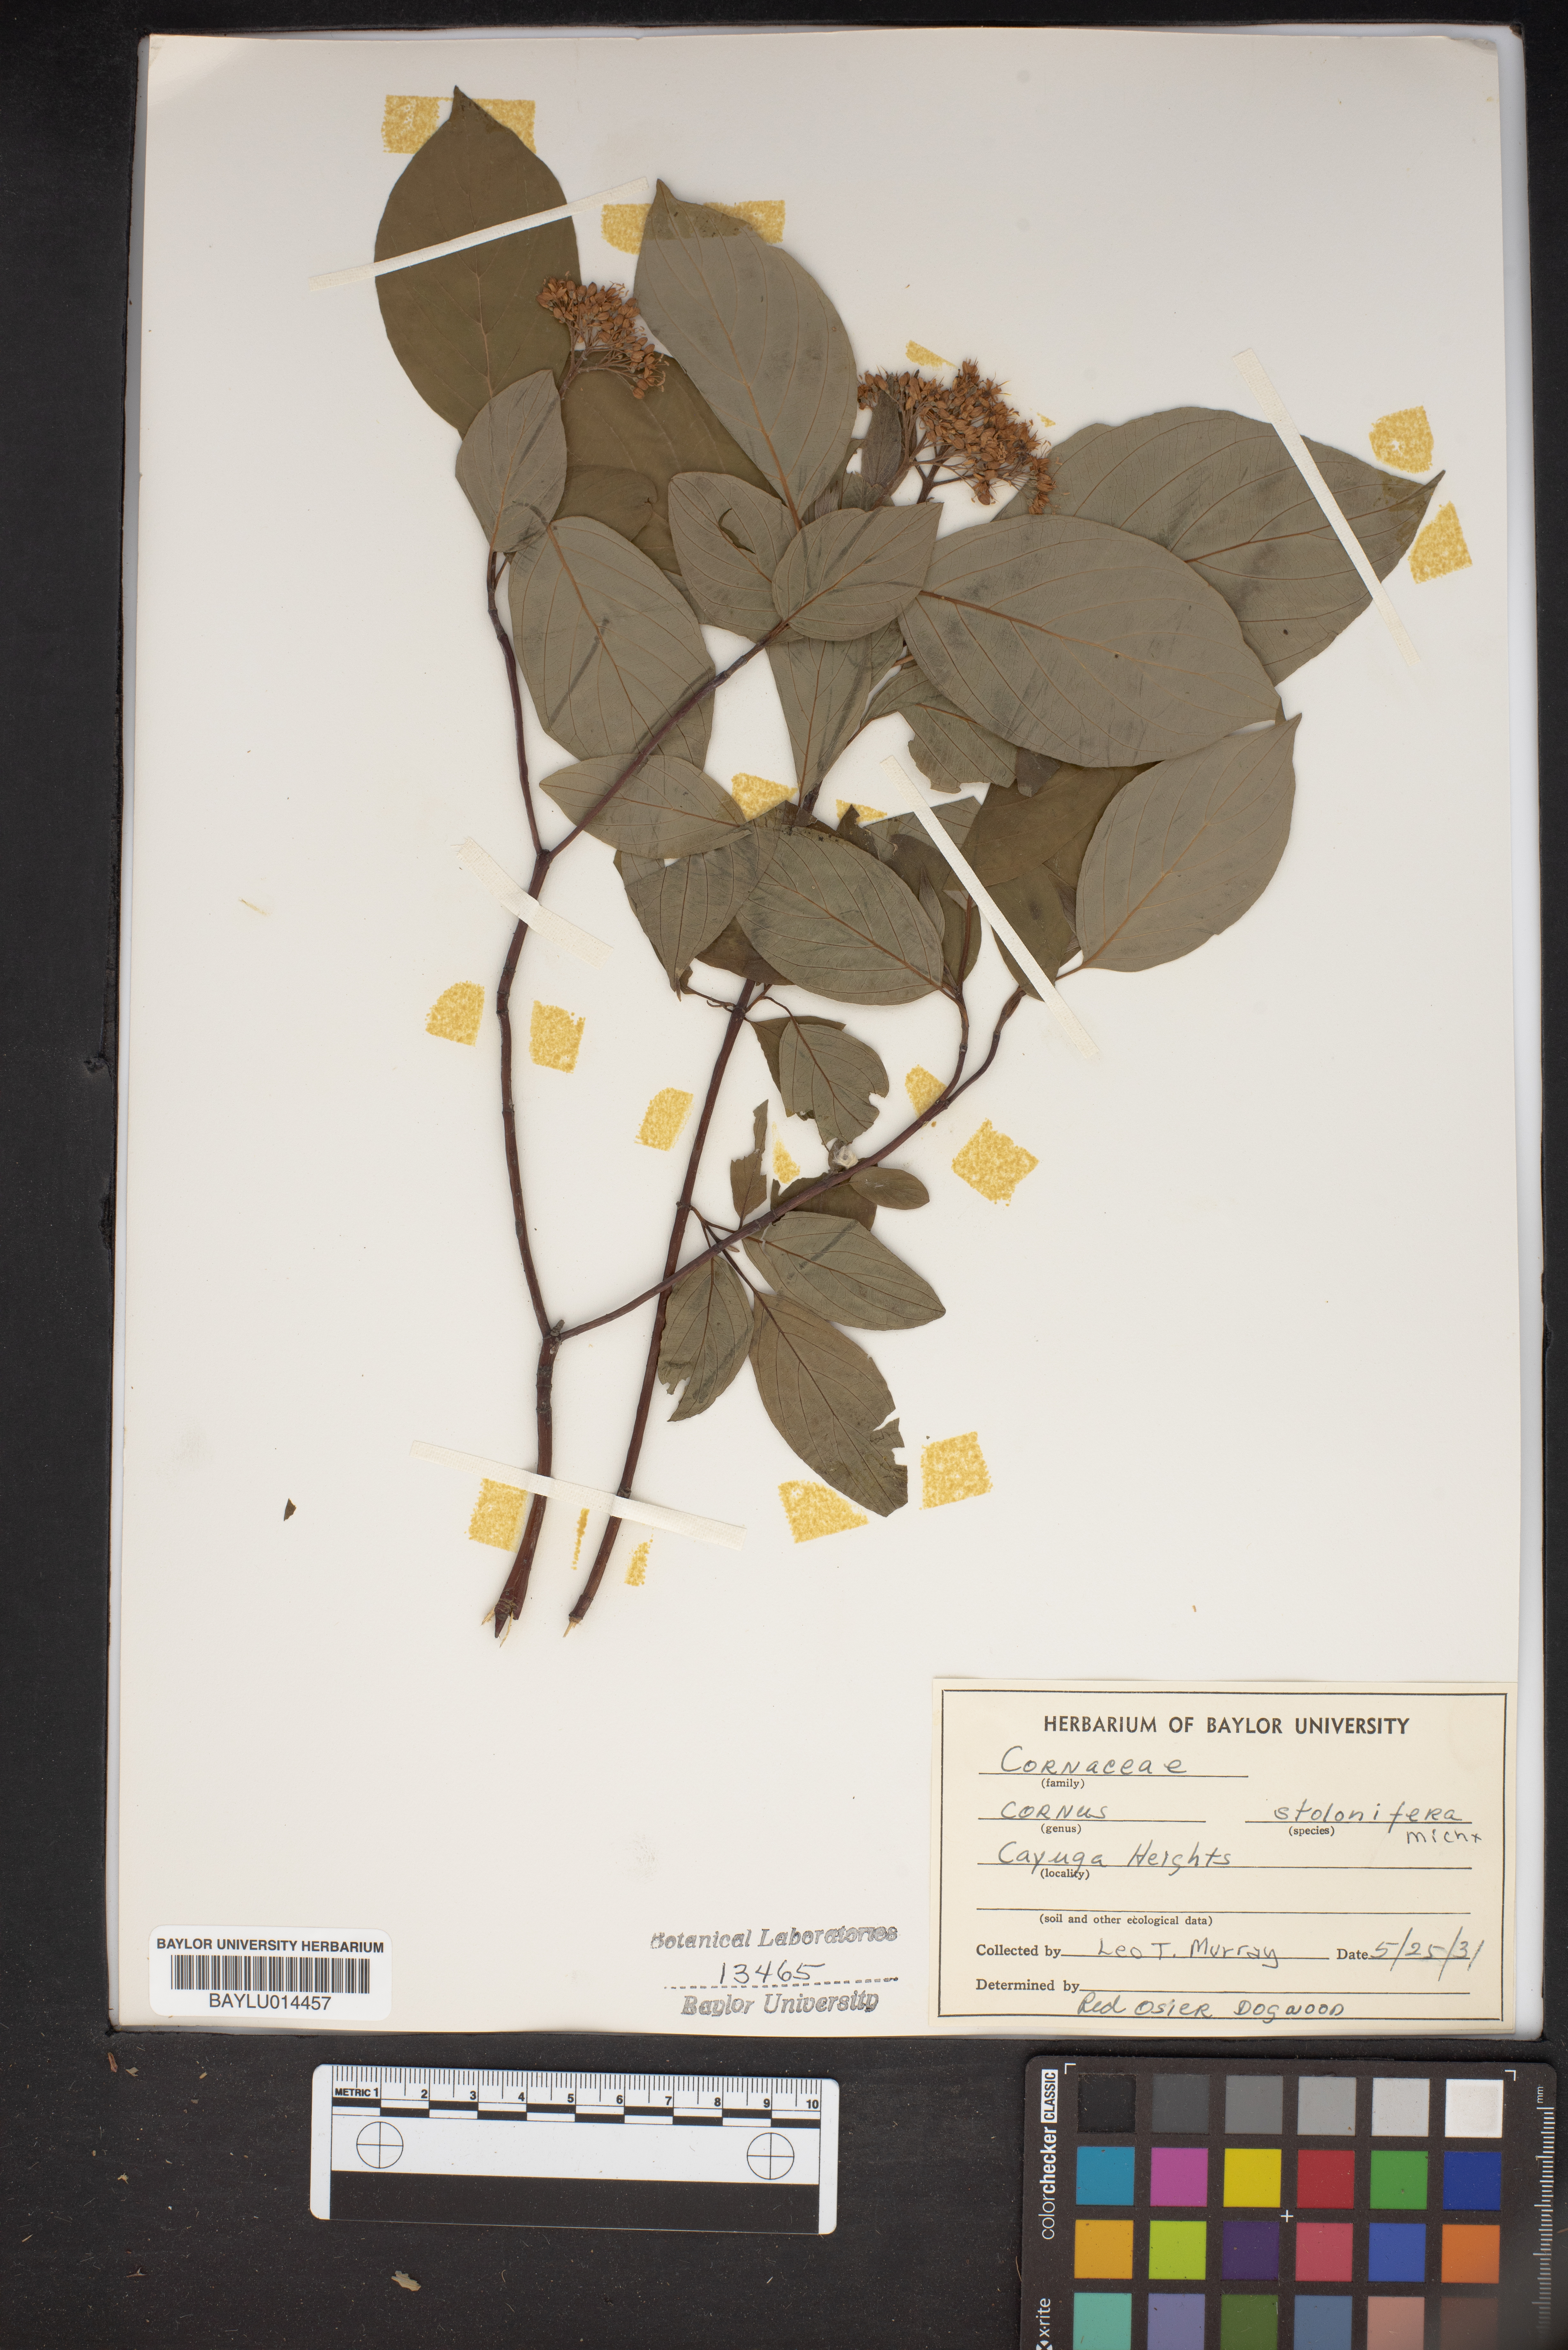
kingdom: Plantae
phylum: Tracheophyta
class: Magnoliopsida
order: Cornales
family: Cornaceae
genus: Cornus
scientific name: Cornus sericea
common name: Red-osier dogwood
